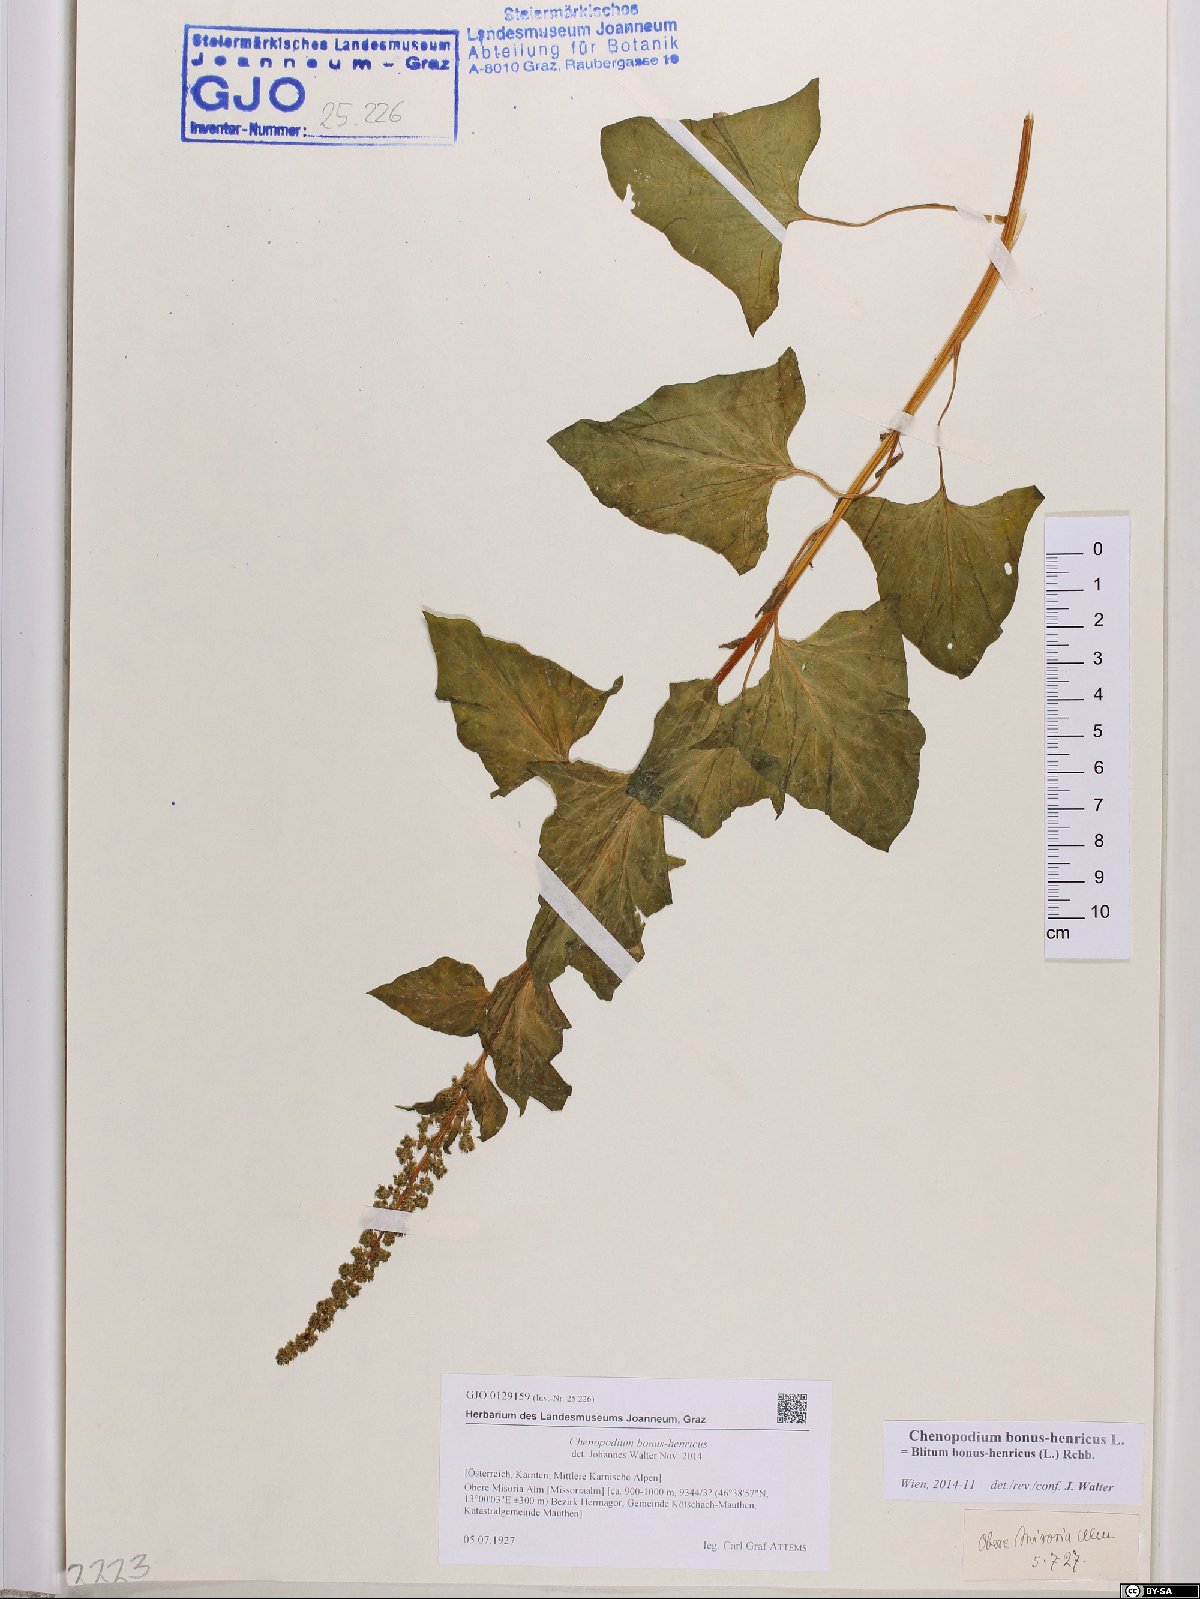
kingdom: Plantae
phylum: Tracheophyta
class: Magnoliopsida
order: Caryophyllales
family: Amaranthaceae
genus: Blitum
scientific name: Blitum bonus-henricus
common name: Good king henry
